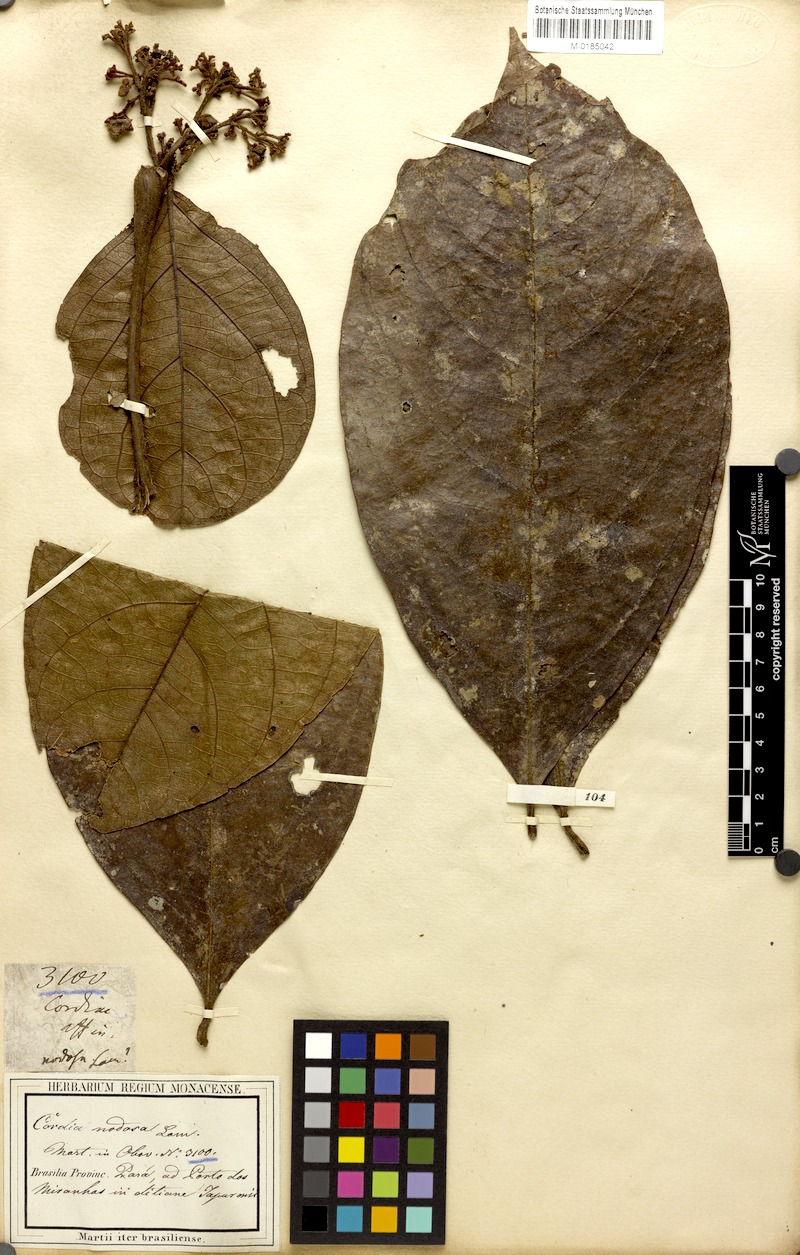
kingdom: Plantae
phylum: Tracheophyta
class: Magnoliopsida
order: Boraginales
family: Cordiaceae
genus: Cordia
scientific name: Cordia nodosa
